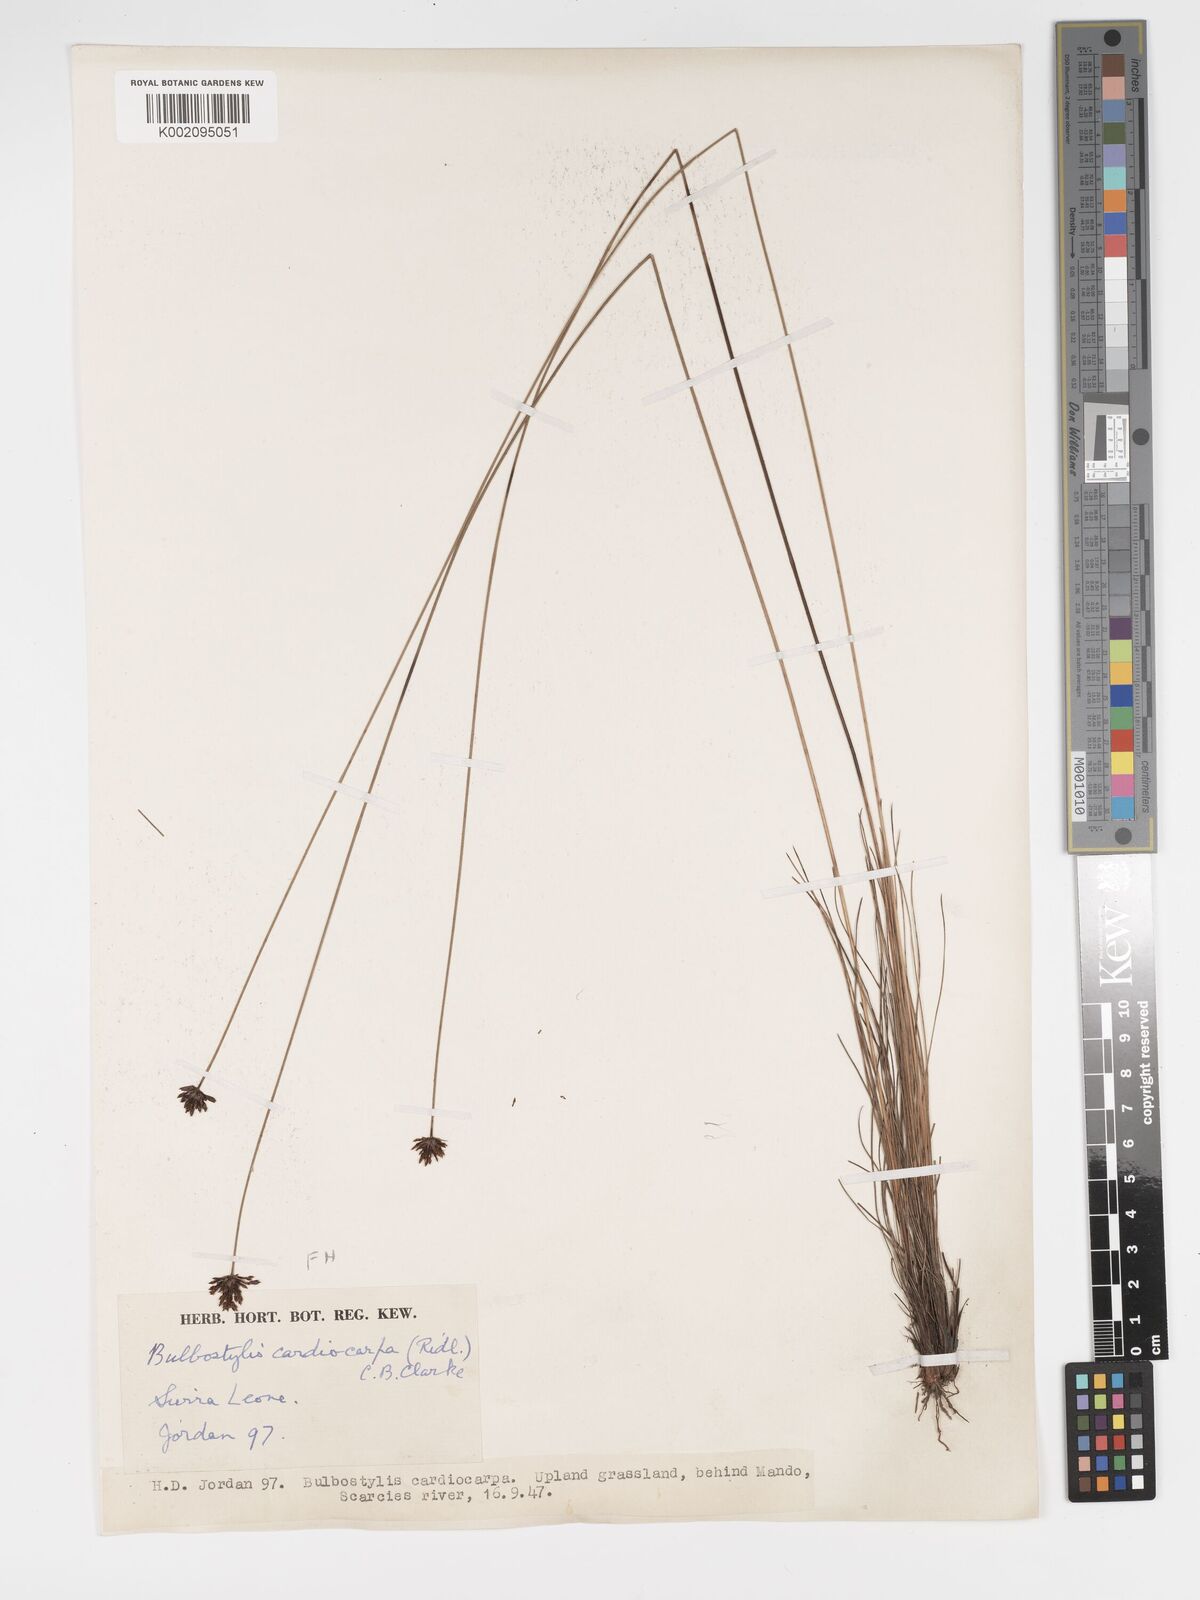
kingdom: Plantae
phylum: Tracheophyta
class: Liliopsida
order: Poales
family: Cyperaceae
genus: Bulbostylis
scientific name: Bulbostylis scabricaulis
